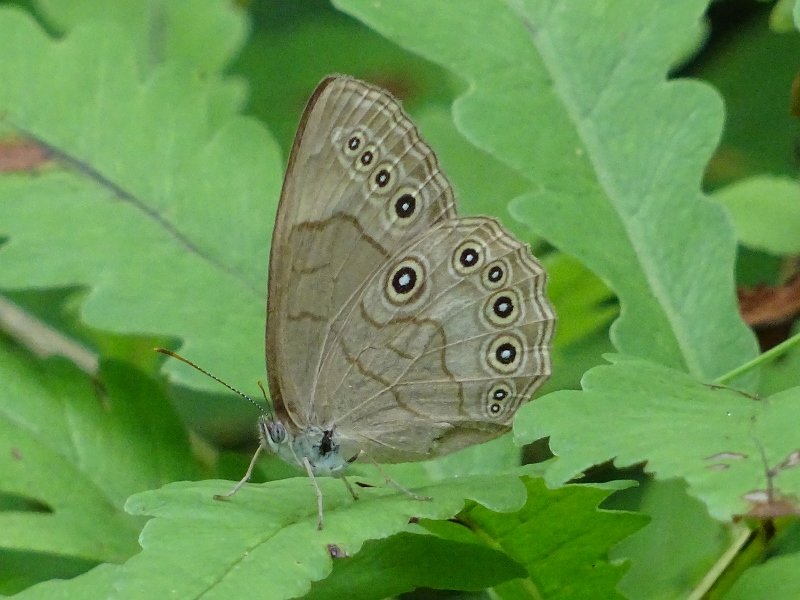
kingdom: Animalia
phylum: Arthropoda
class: Insecta
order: Lepidoptera
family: Nymphalidae
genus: Lethe
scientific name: Lethe eurydice
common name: Appalachian Eyed Brown
